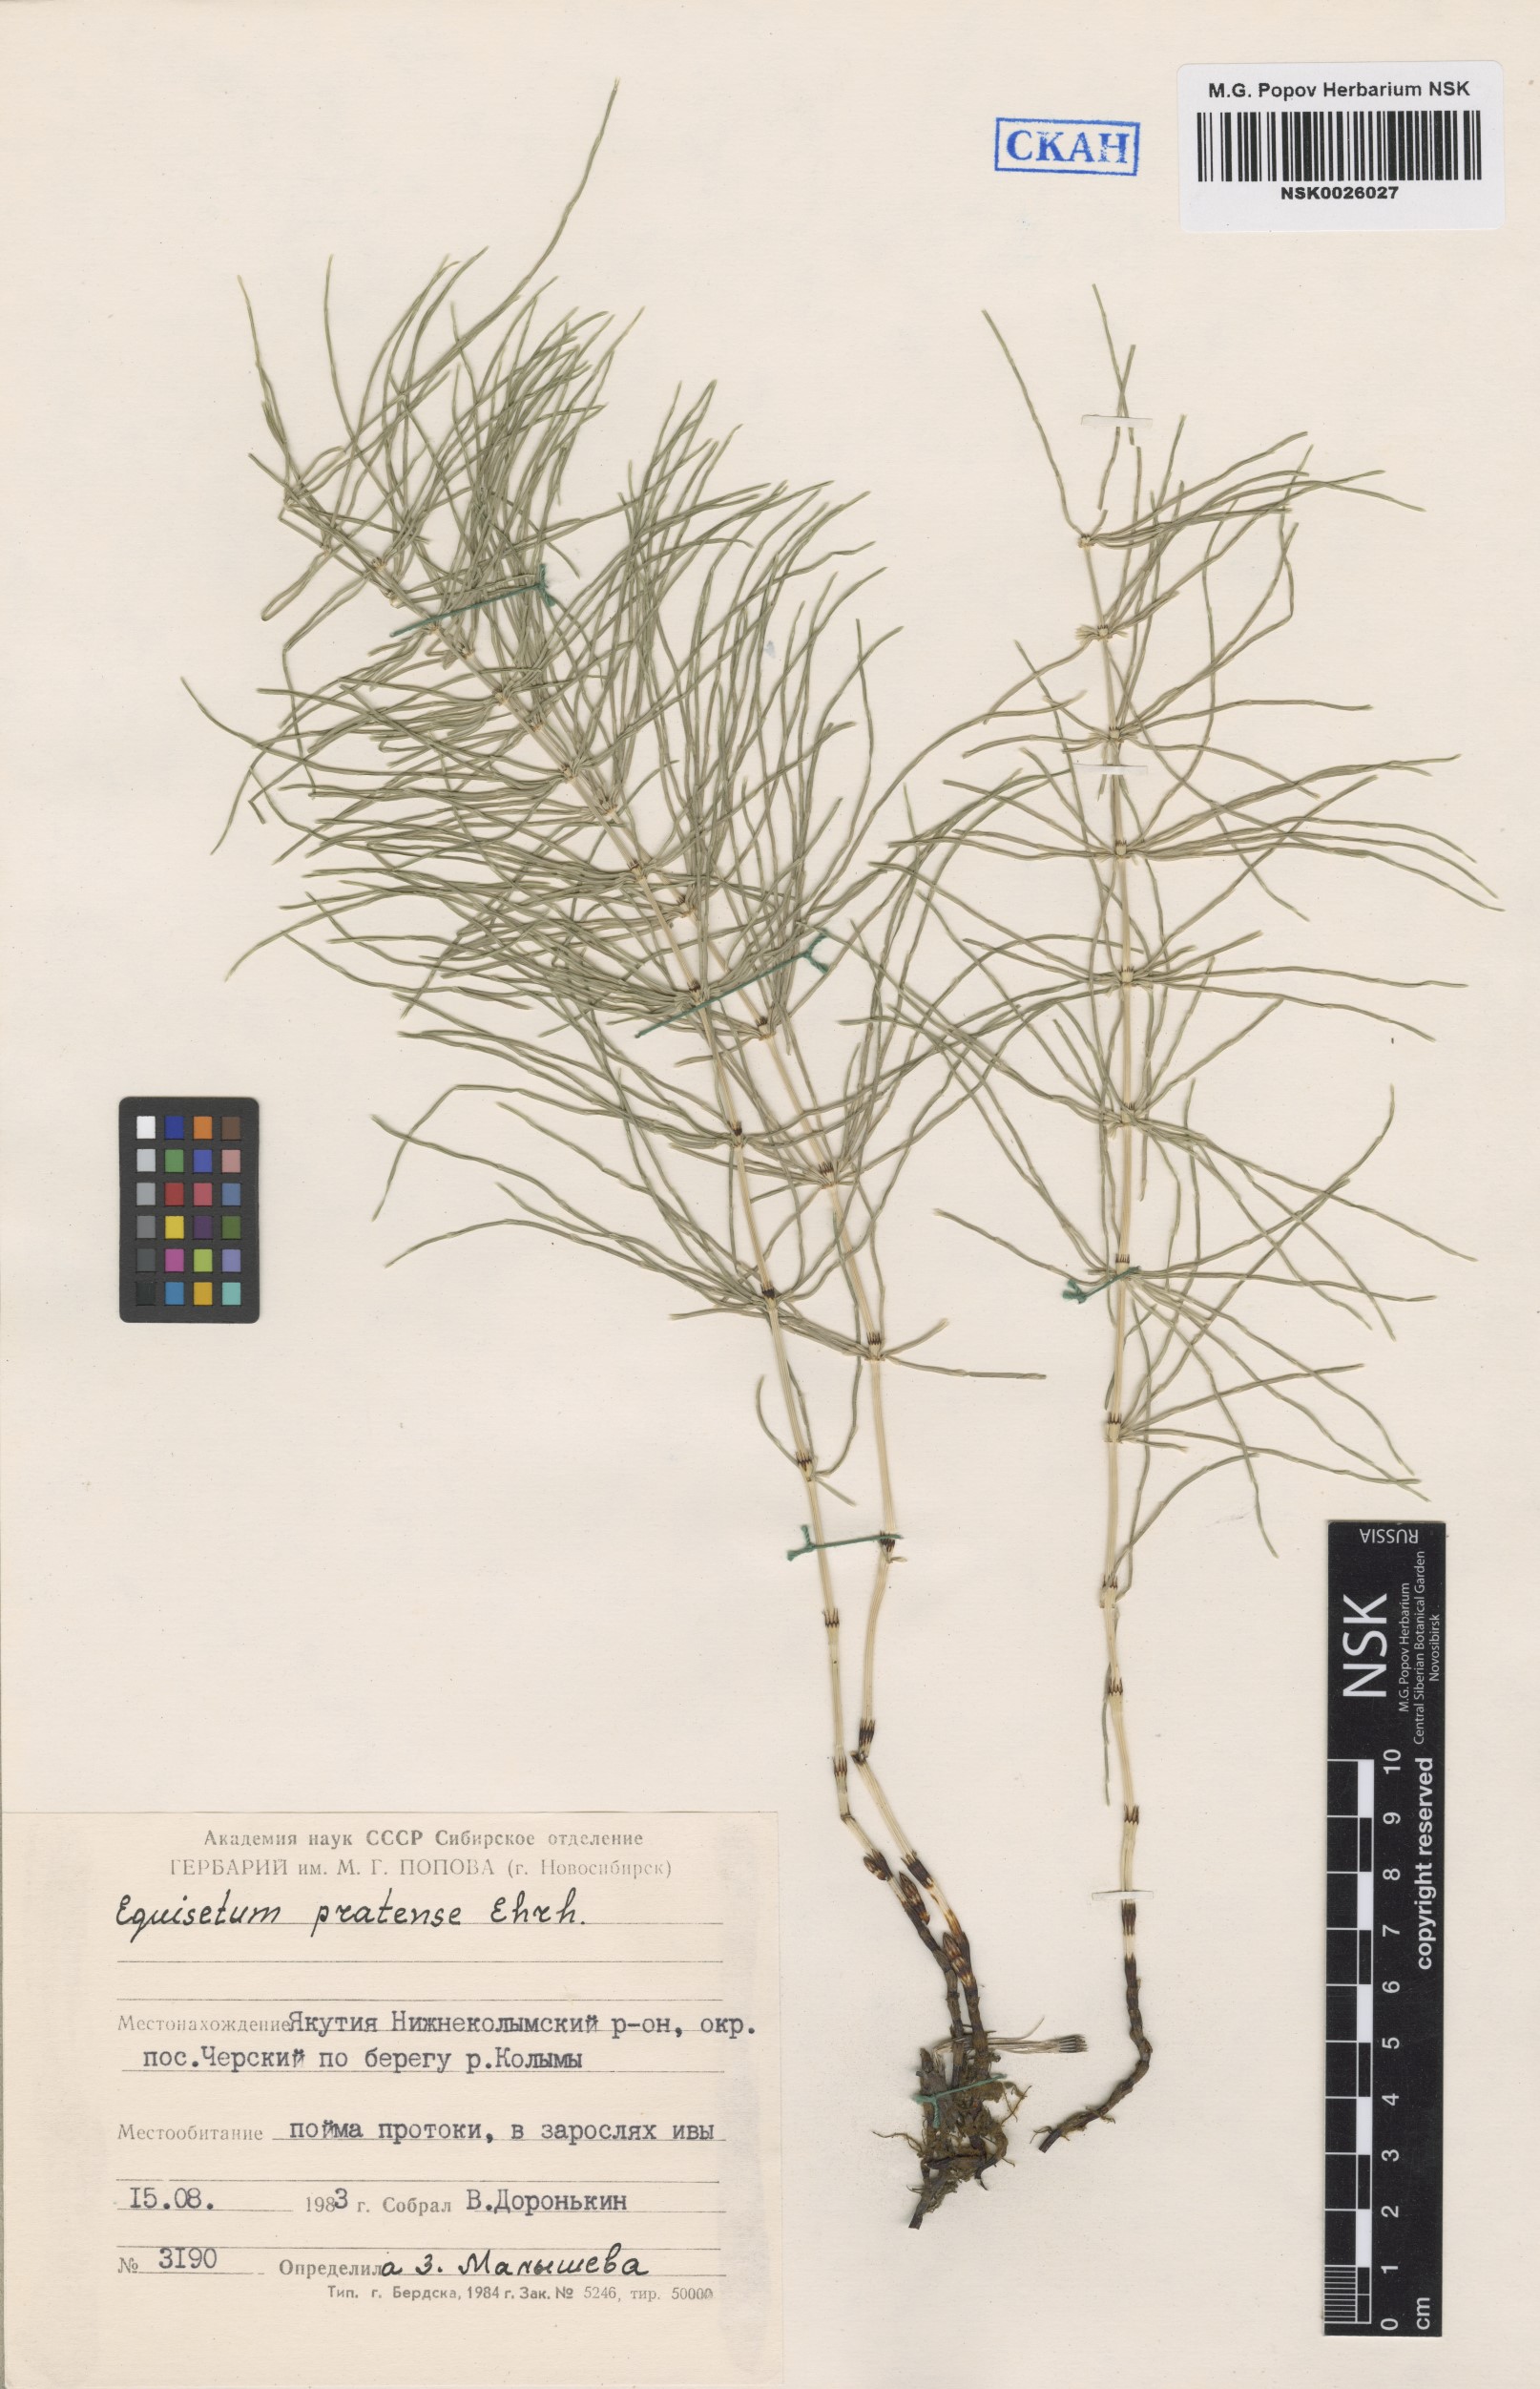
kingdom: Plantae
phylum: Tracheophyta
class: Polypodiopsida
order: Equisetales
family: Equisetaceae
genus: Equisetum
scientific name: Equisetum pratense
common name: Meadow horsetail
